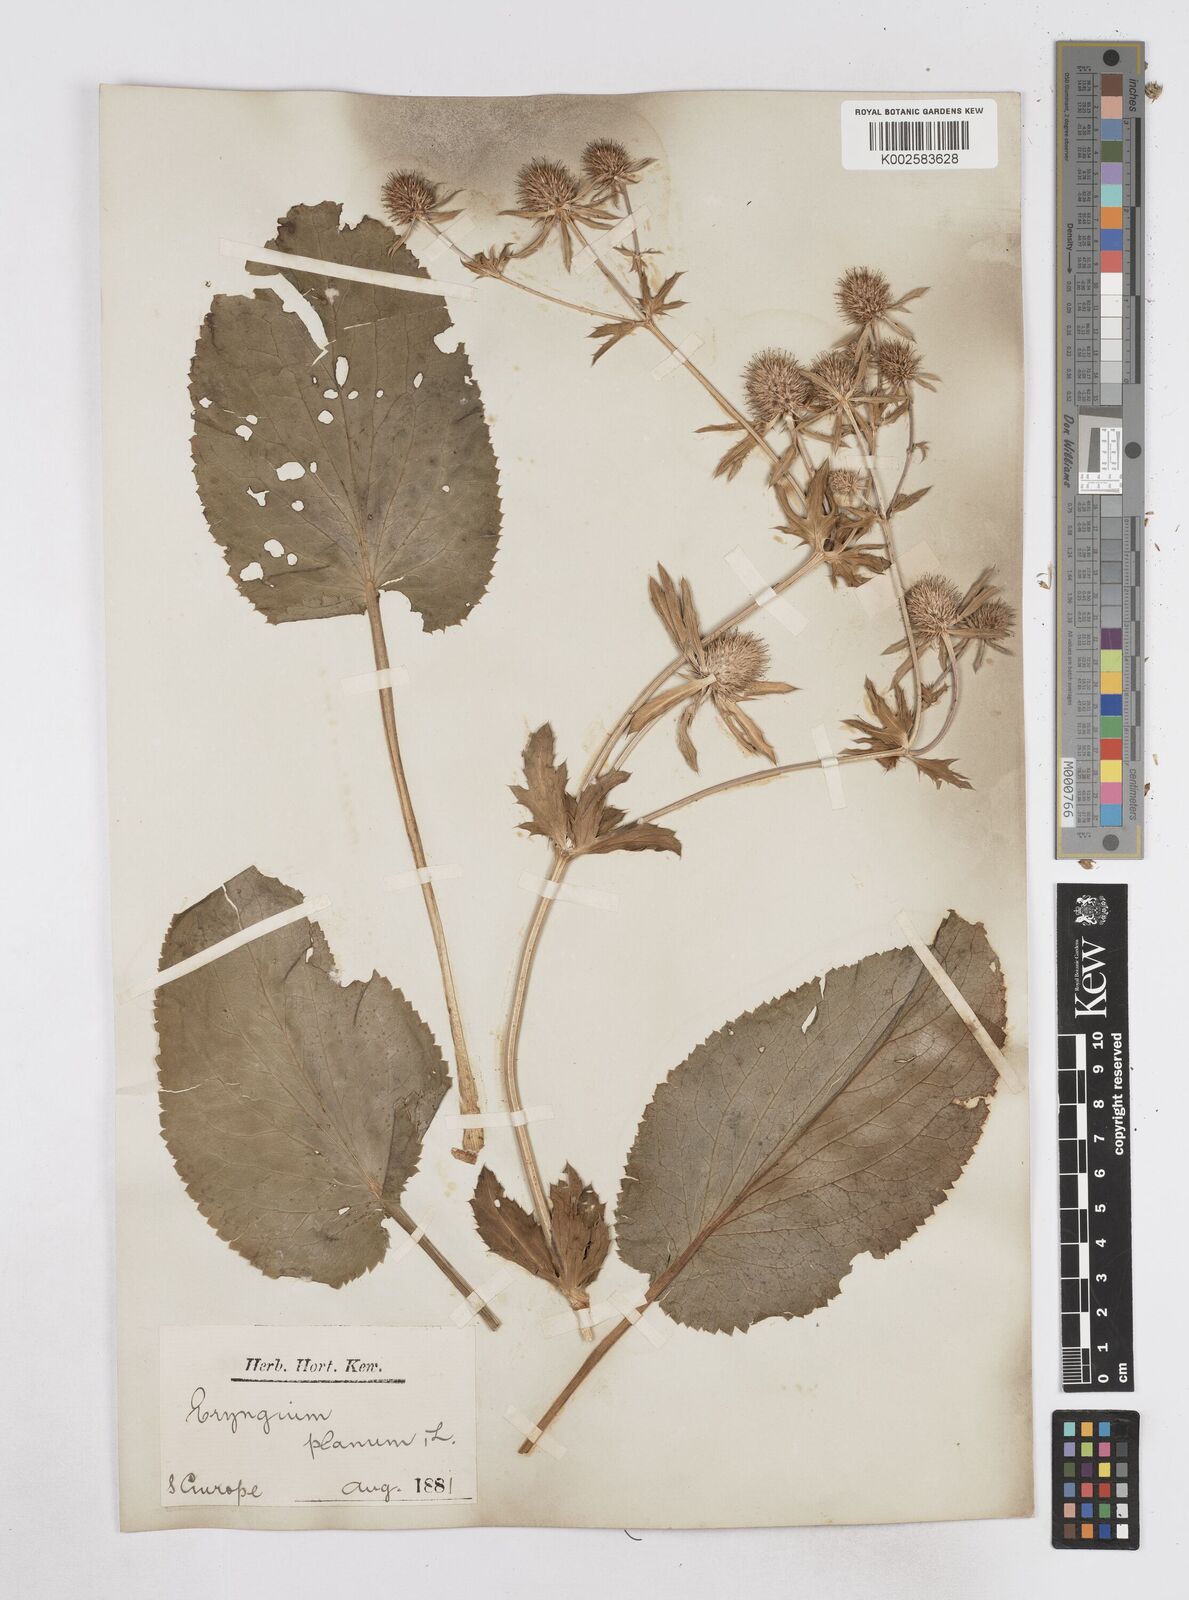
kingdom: Plantae
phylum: Tracheophyta
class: Magnoliopsida
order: Apiales
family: Apiaceae
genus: Eryngium
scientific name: Eryngium planum
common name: Blue eryngo
